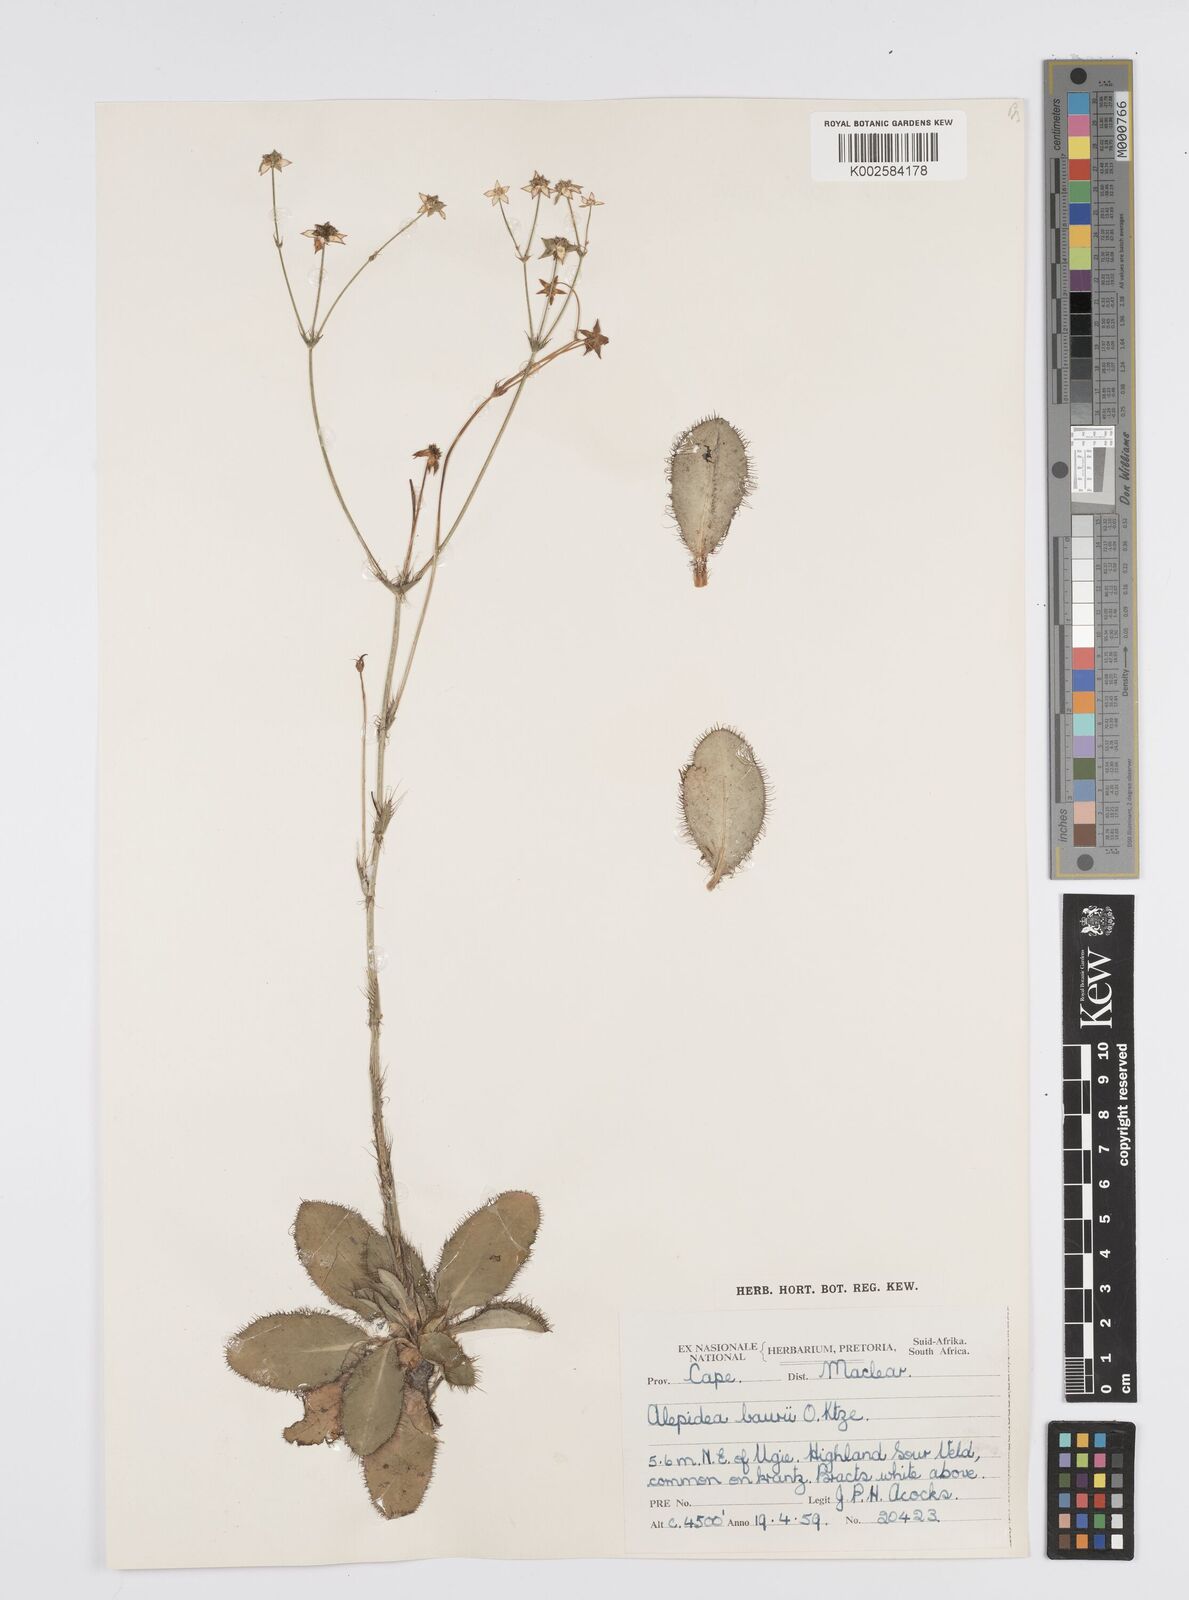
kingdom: Plantae
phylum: Tracheophyta
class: Magnoliopsida
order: Apiales
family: Apiaceae
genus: Alepidea
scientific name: Alepidea natalensis
